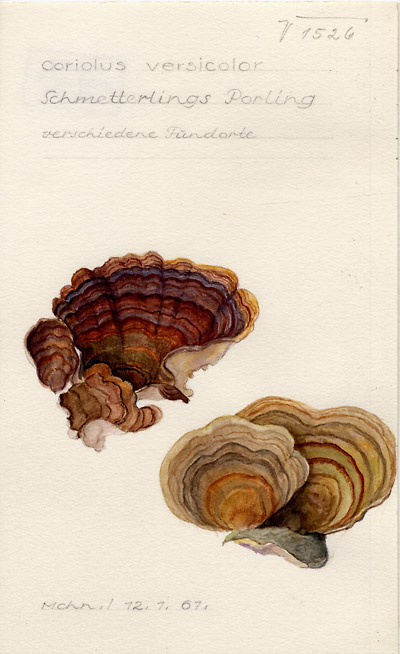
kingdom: Fungi
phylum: Basidiomycota
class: Agaricomycetes
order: Polyporales
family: Polyporaceae
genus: Trametes
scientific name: Trametes versicolor
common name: Turkeytail
